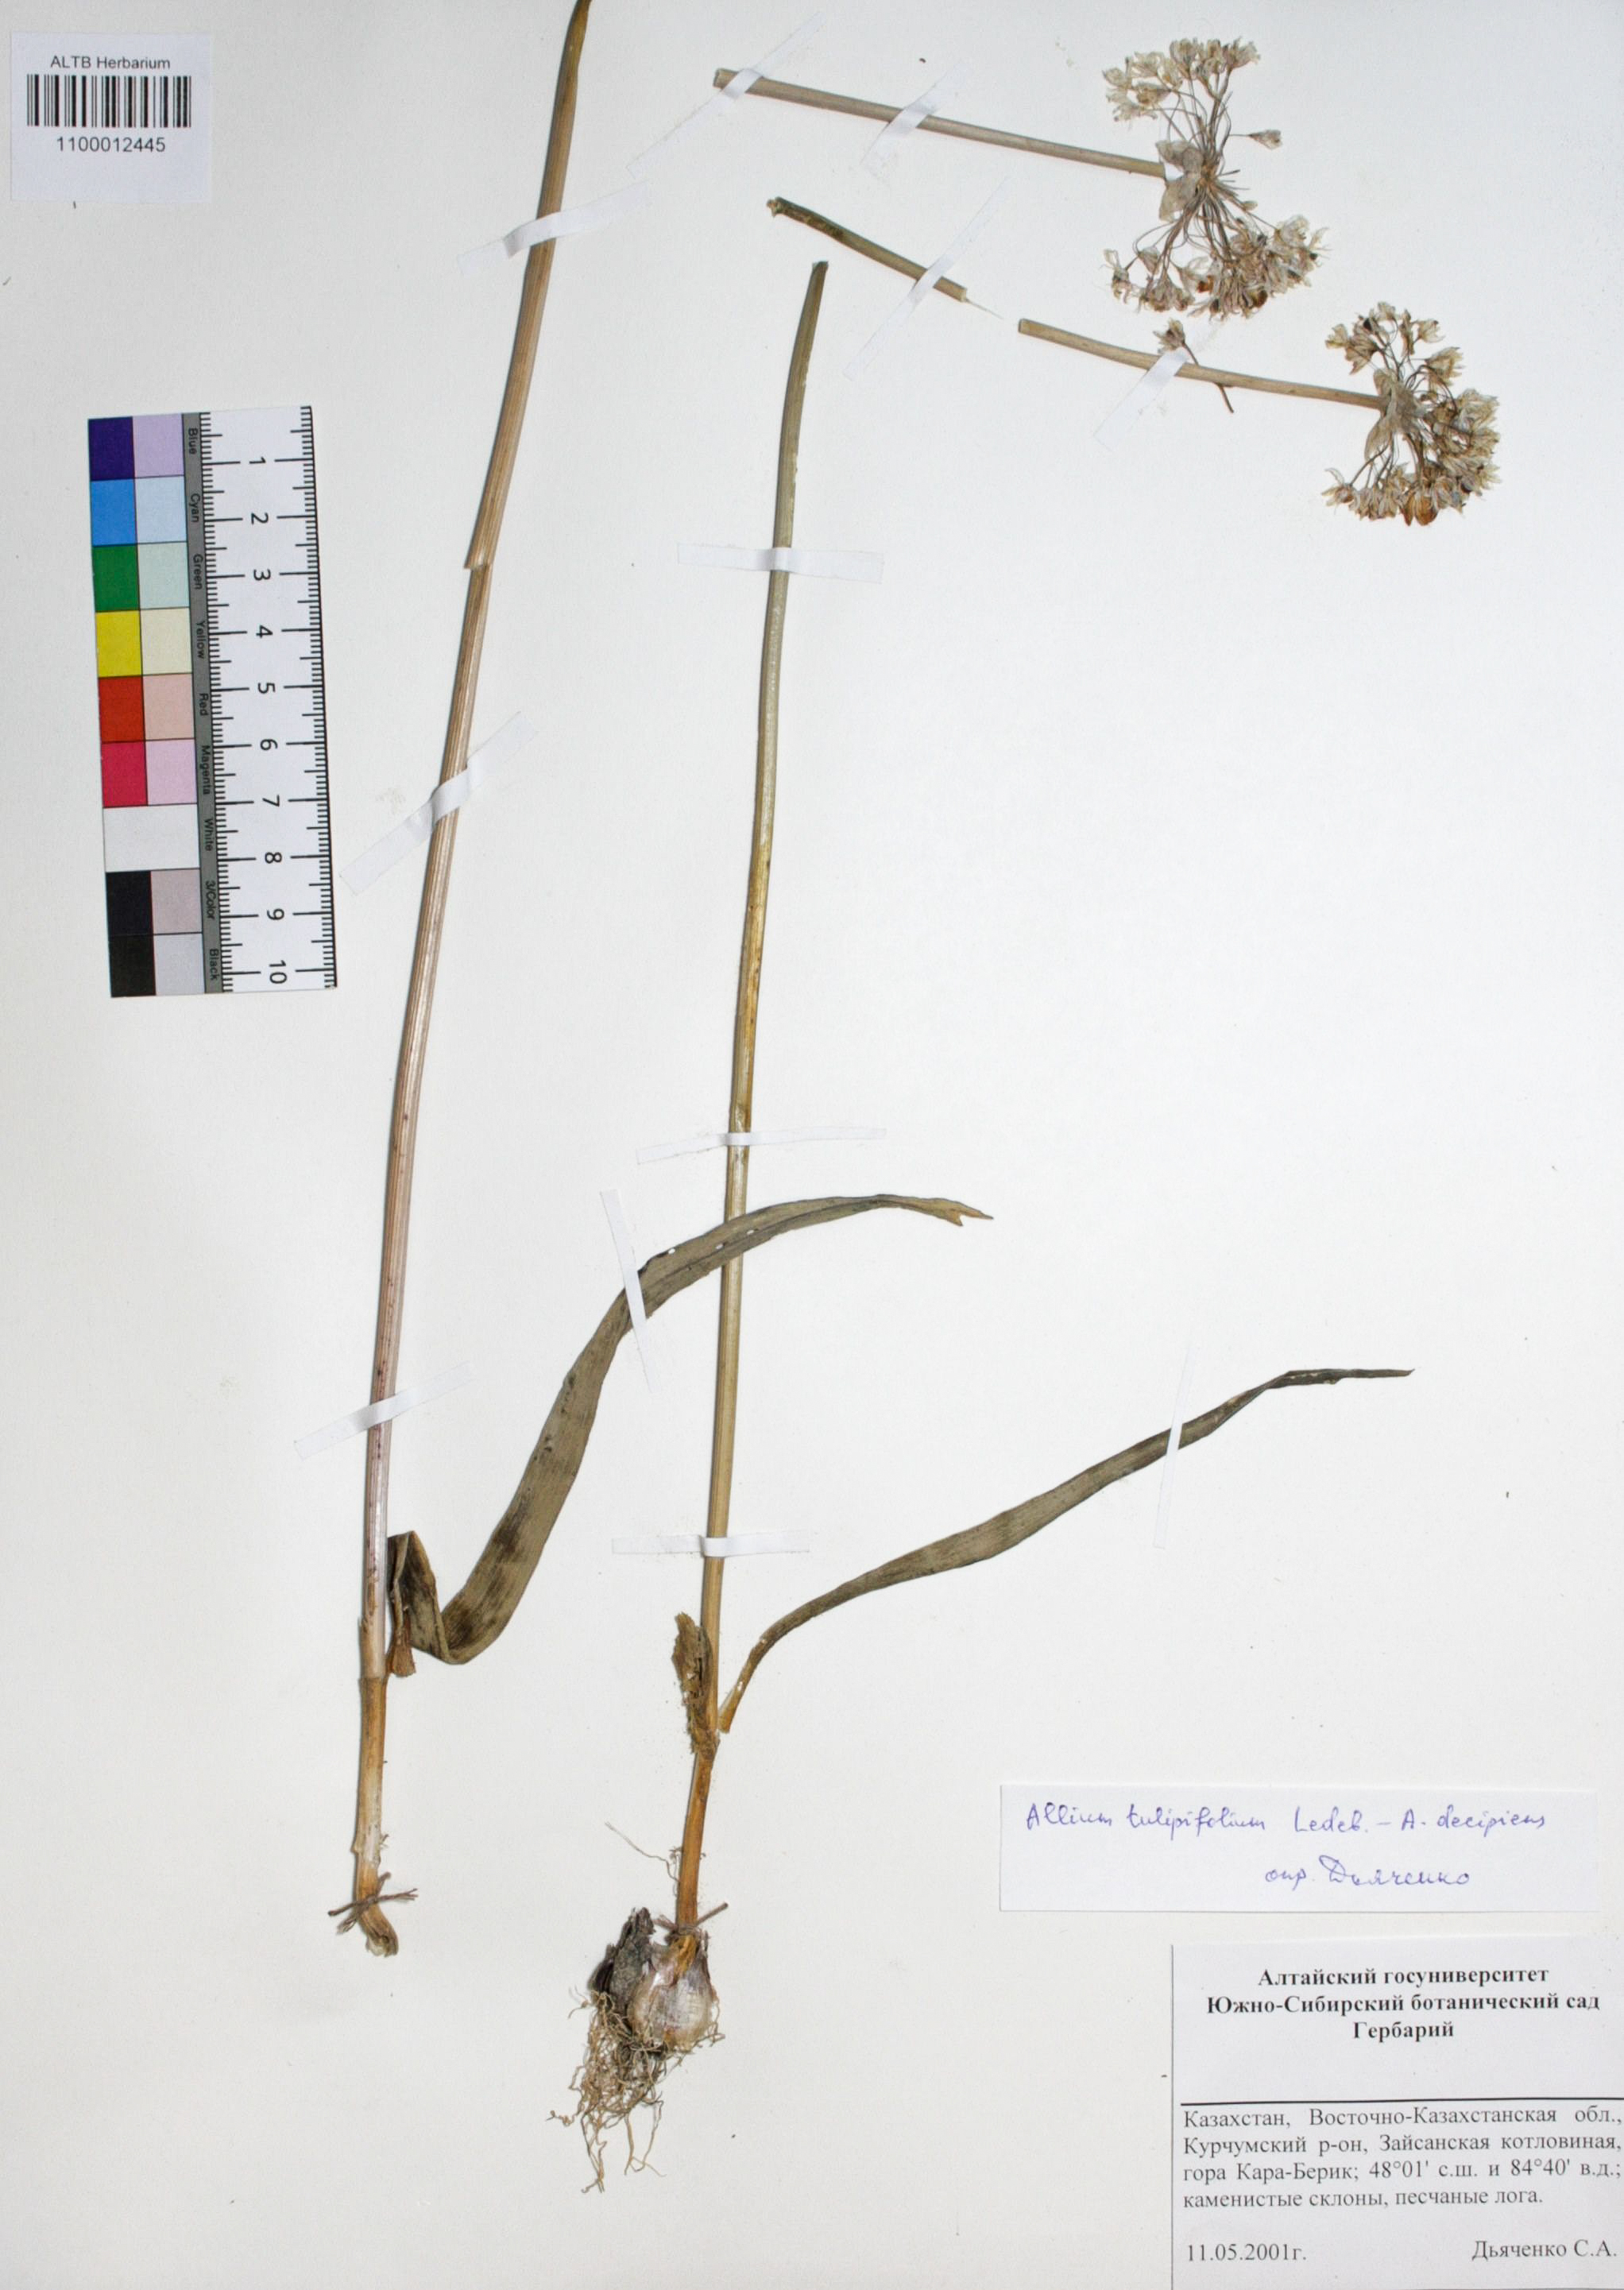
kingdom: Plantae
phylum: Tracheophyta
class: Liliopsida
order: Asparagales
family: Amaryllidaceae
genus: Allium
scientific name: Allium tulipifolium
